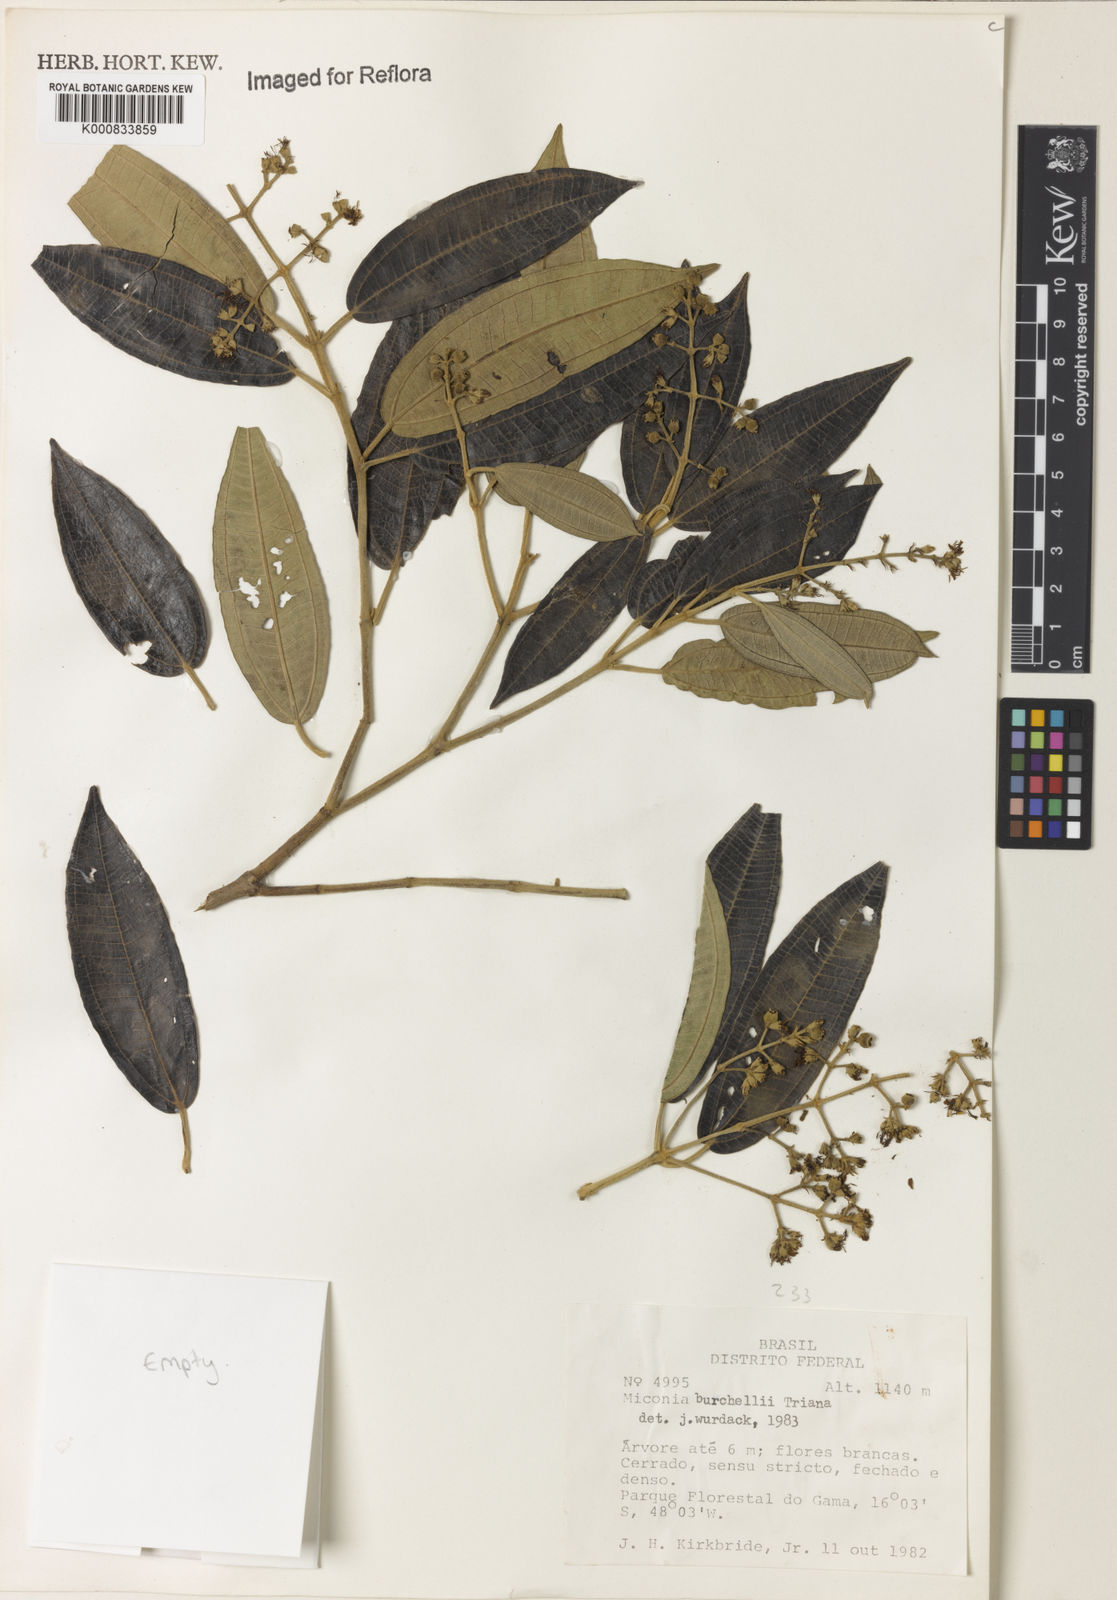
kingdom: Plantae
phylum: Tracheophyta
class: Magnoliopsida
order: Myrtales
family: Melastomataceae
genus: Miconia
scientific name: Miconia burchellii
